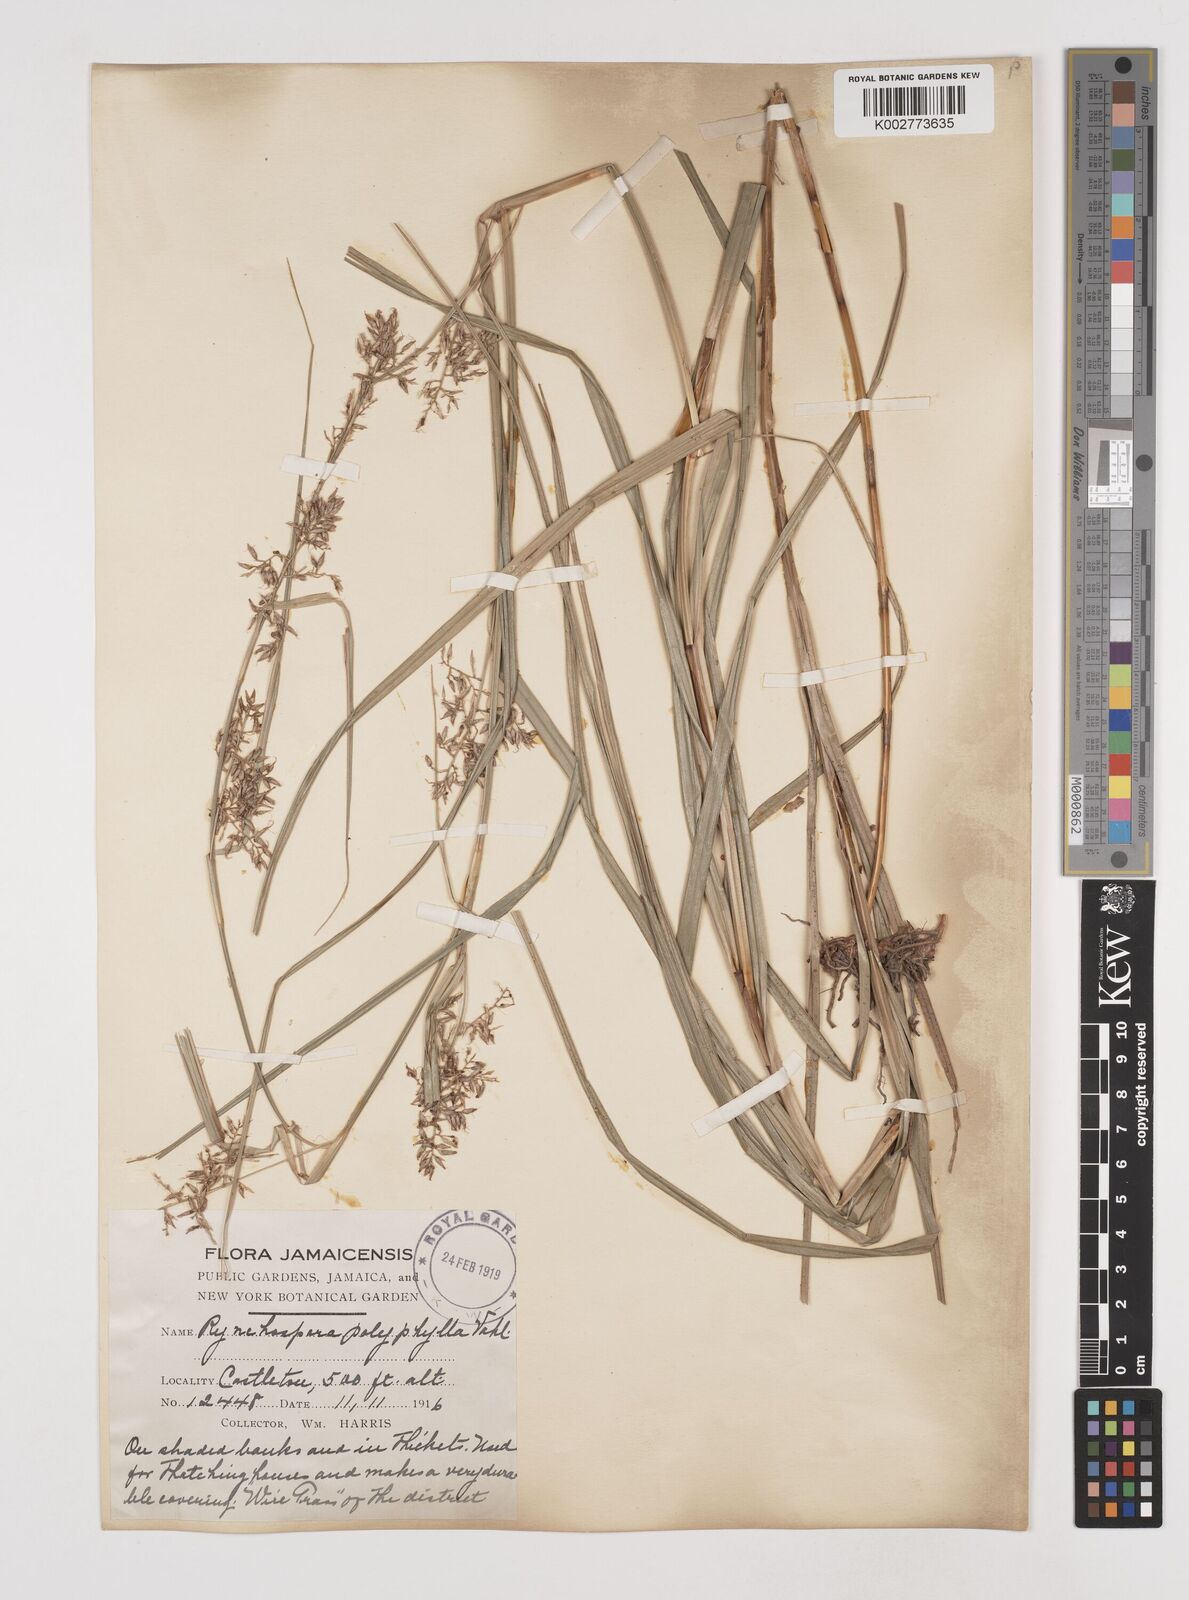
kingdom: Plantae
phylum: Tracheophyta
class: Liliopsida
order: Poales
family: Cyperaceae
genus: Rhynchospora
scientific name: Rhynchospora polyphylla
